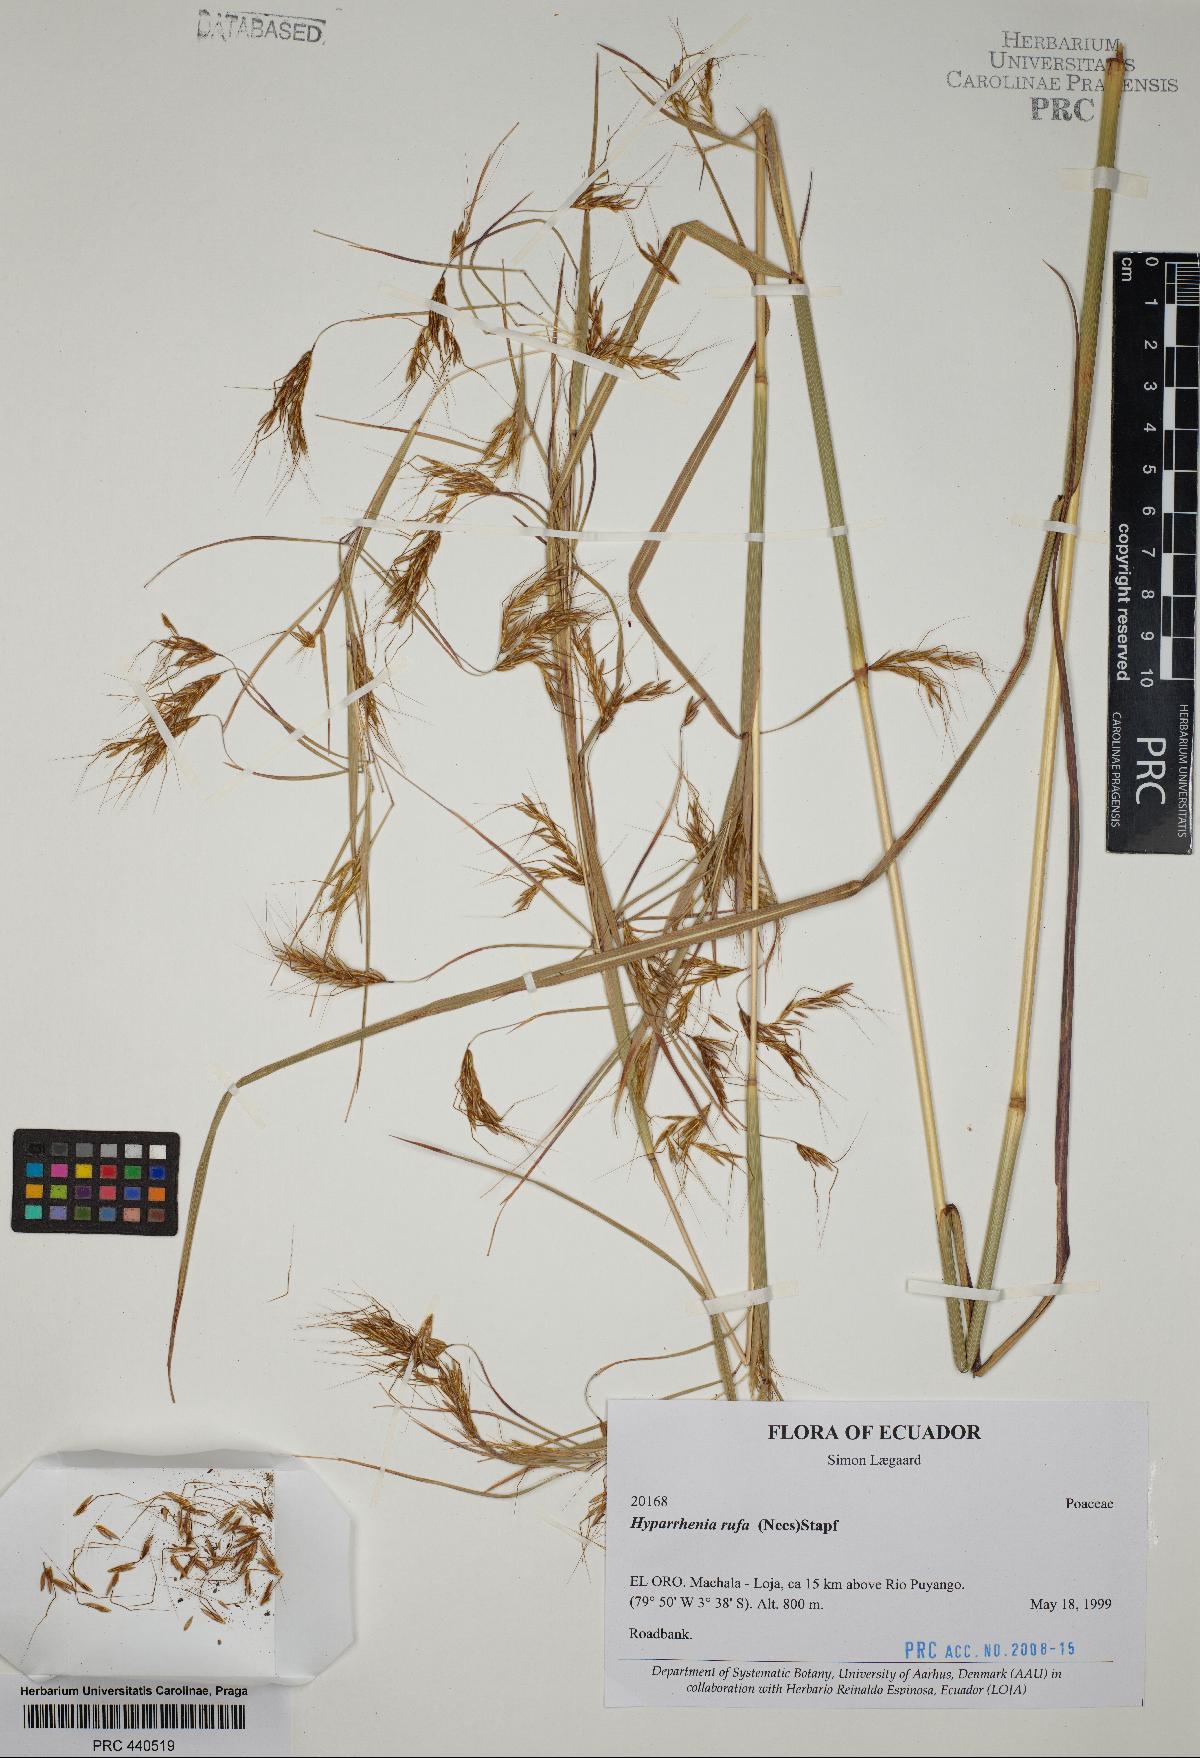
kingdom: Plantae
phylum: Tracheophyta
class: Liliopsida
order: Poales
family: Poaceae
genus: Hyparrhenia
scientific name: Hyparrhenia rufa
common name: Jaraguagrass
